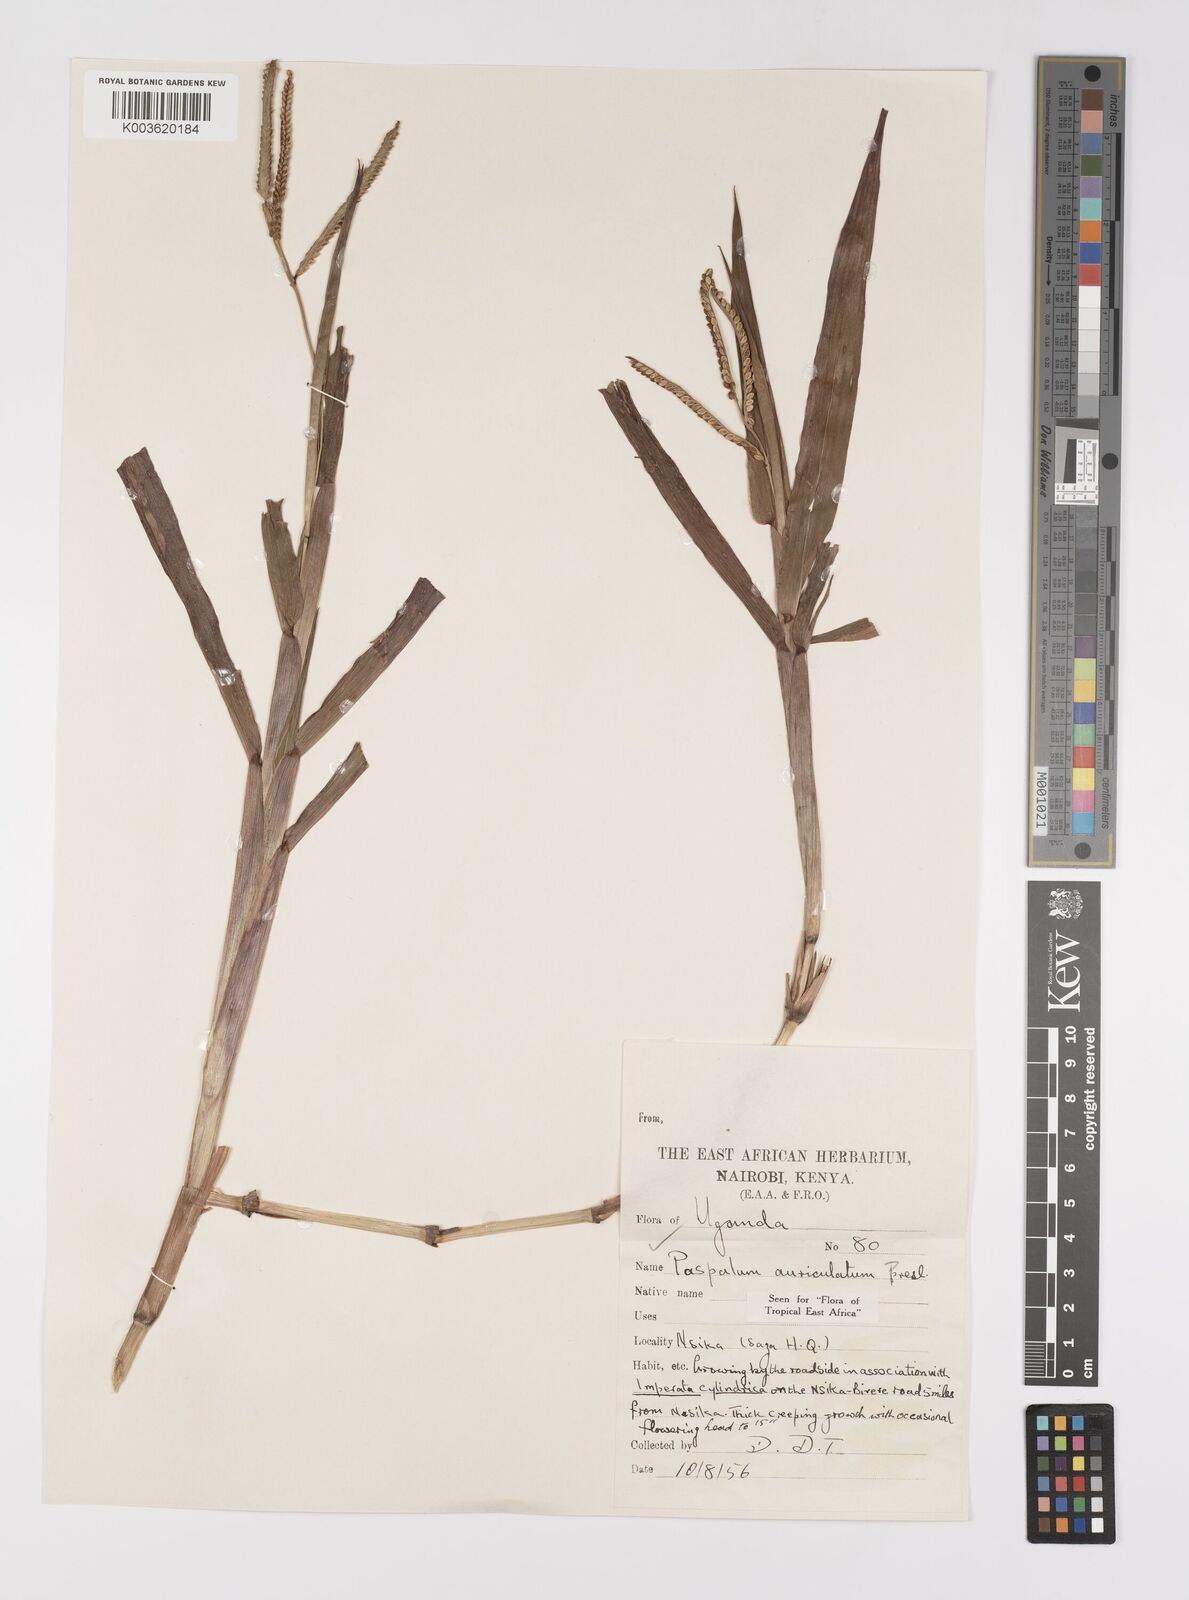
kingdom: Plantae
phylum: Tracheophyta
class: Liliopsida
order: Poales
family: Poaceae
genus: Paspalum
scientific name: Paspalum lamprocaryon
